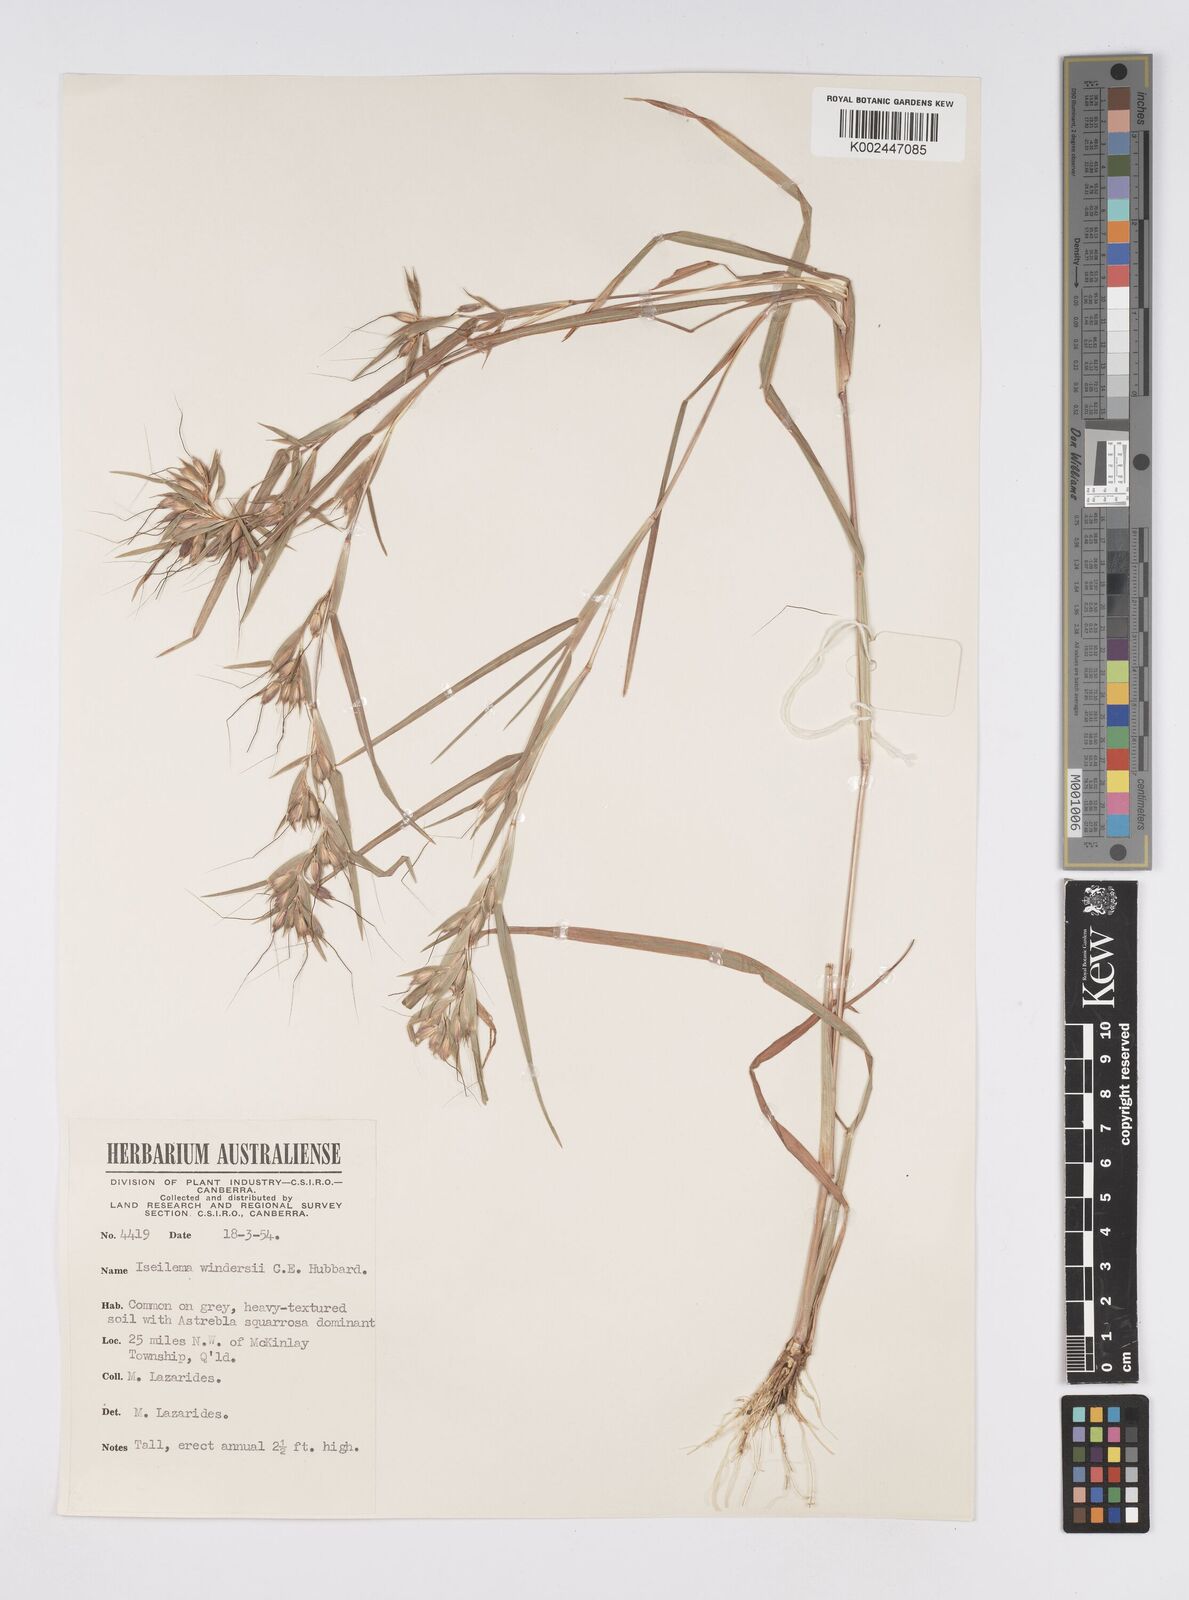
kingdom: Plantae
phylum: Tracheophyta
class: Liliopsida
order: Poales
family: Poaceae
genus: Iseilema
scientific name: Iseilema windersii
